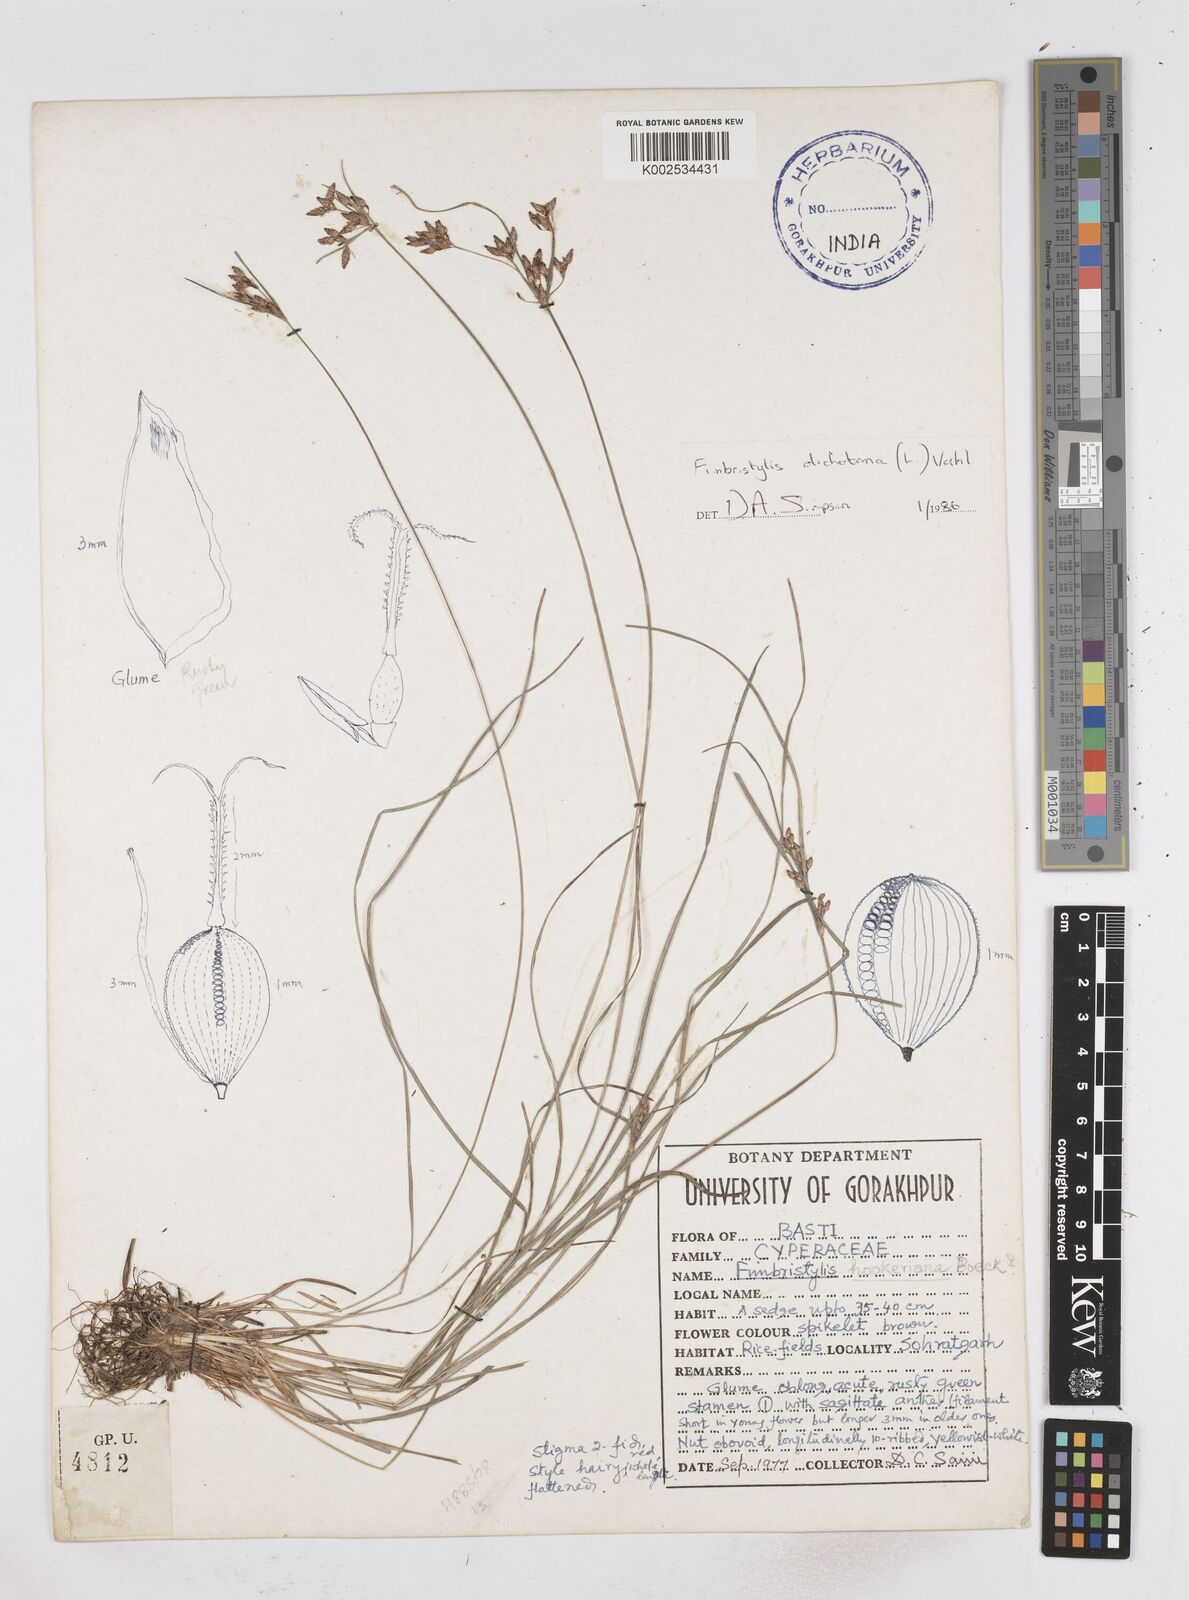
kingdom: Plantae
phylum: Tracheophyta
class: Liliopsida
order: Poales
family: Cyperaceae
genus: Fimbristylis
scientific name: Fimbristylis hookeriana
